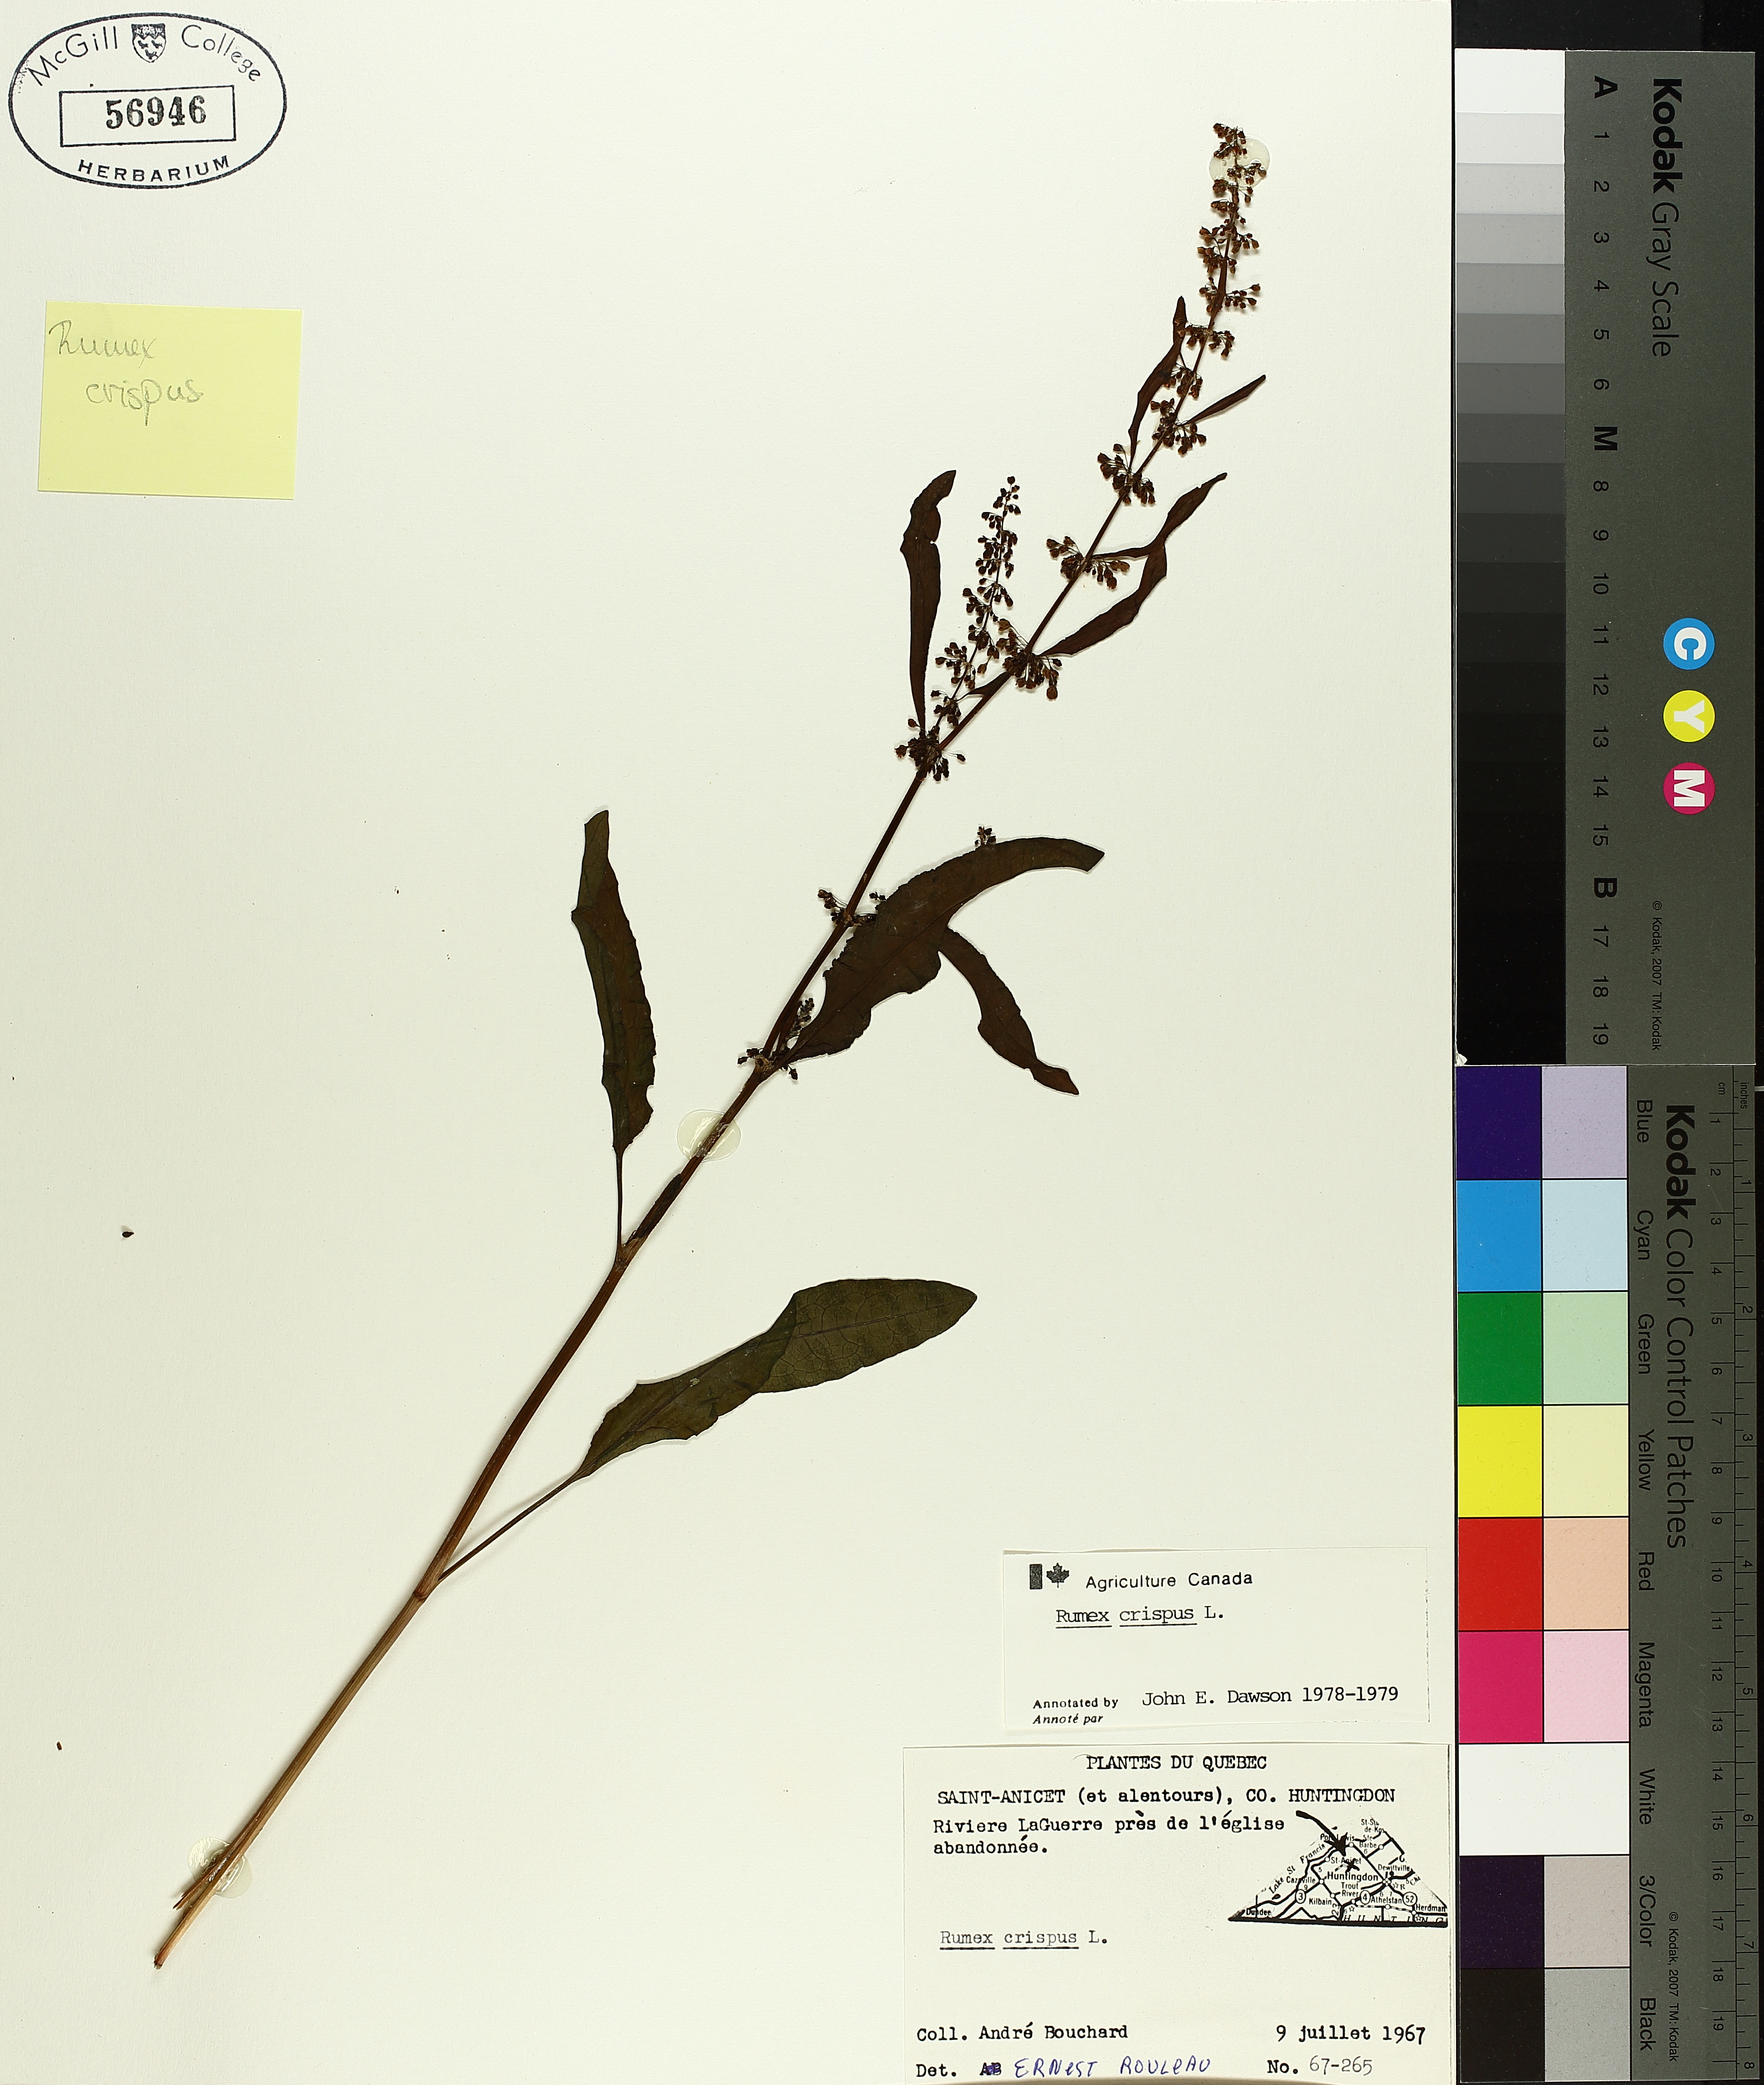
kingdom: Plantae
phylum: Tracheophyta
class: Magnoliopsida
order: Caryophyllales
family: Polygonaceae
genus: Rumex
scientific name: Rumex crispus
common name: Curled dock
